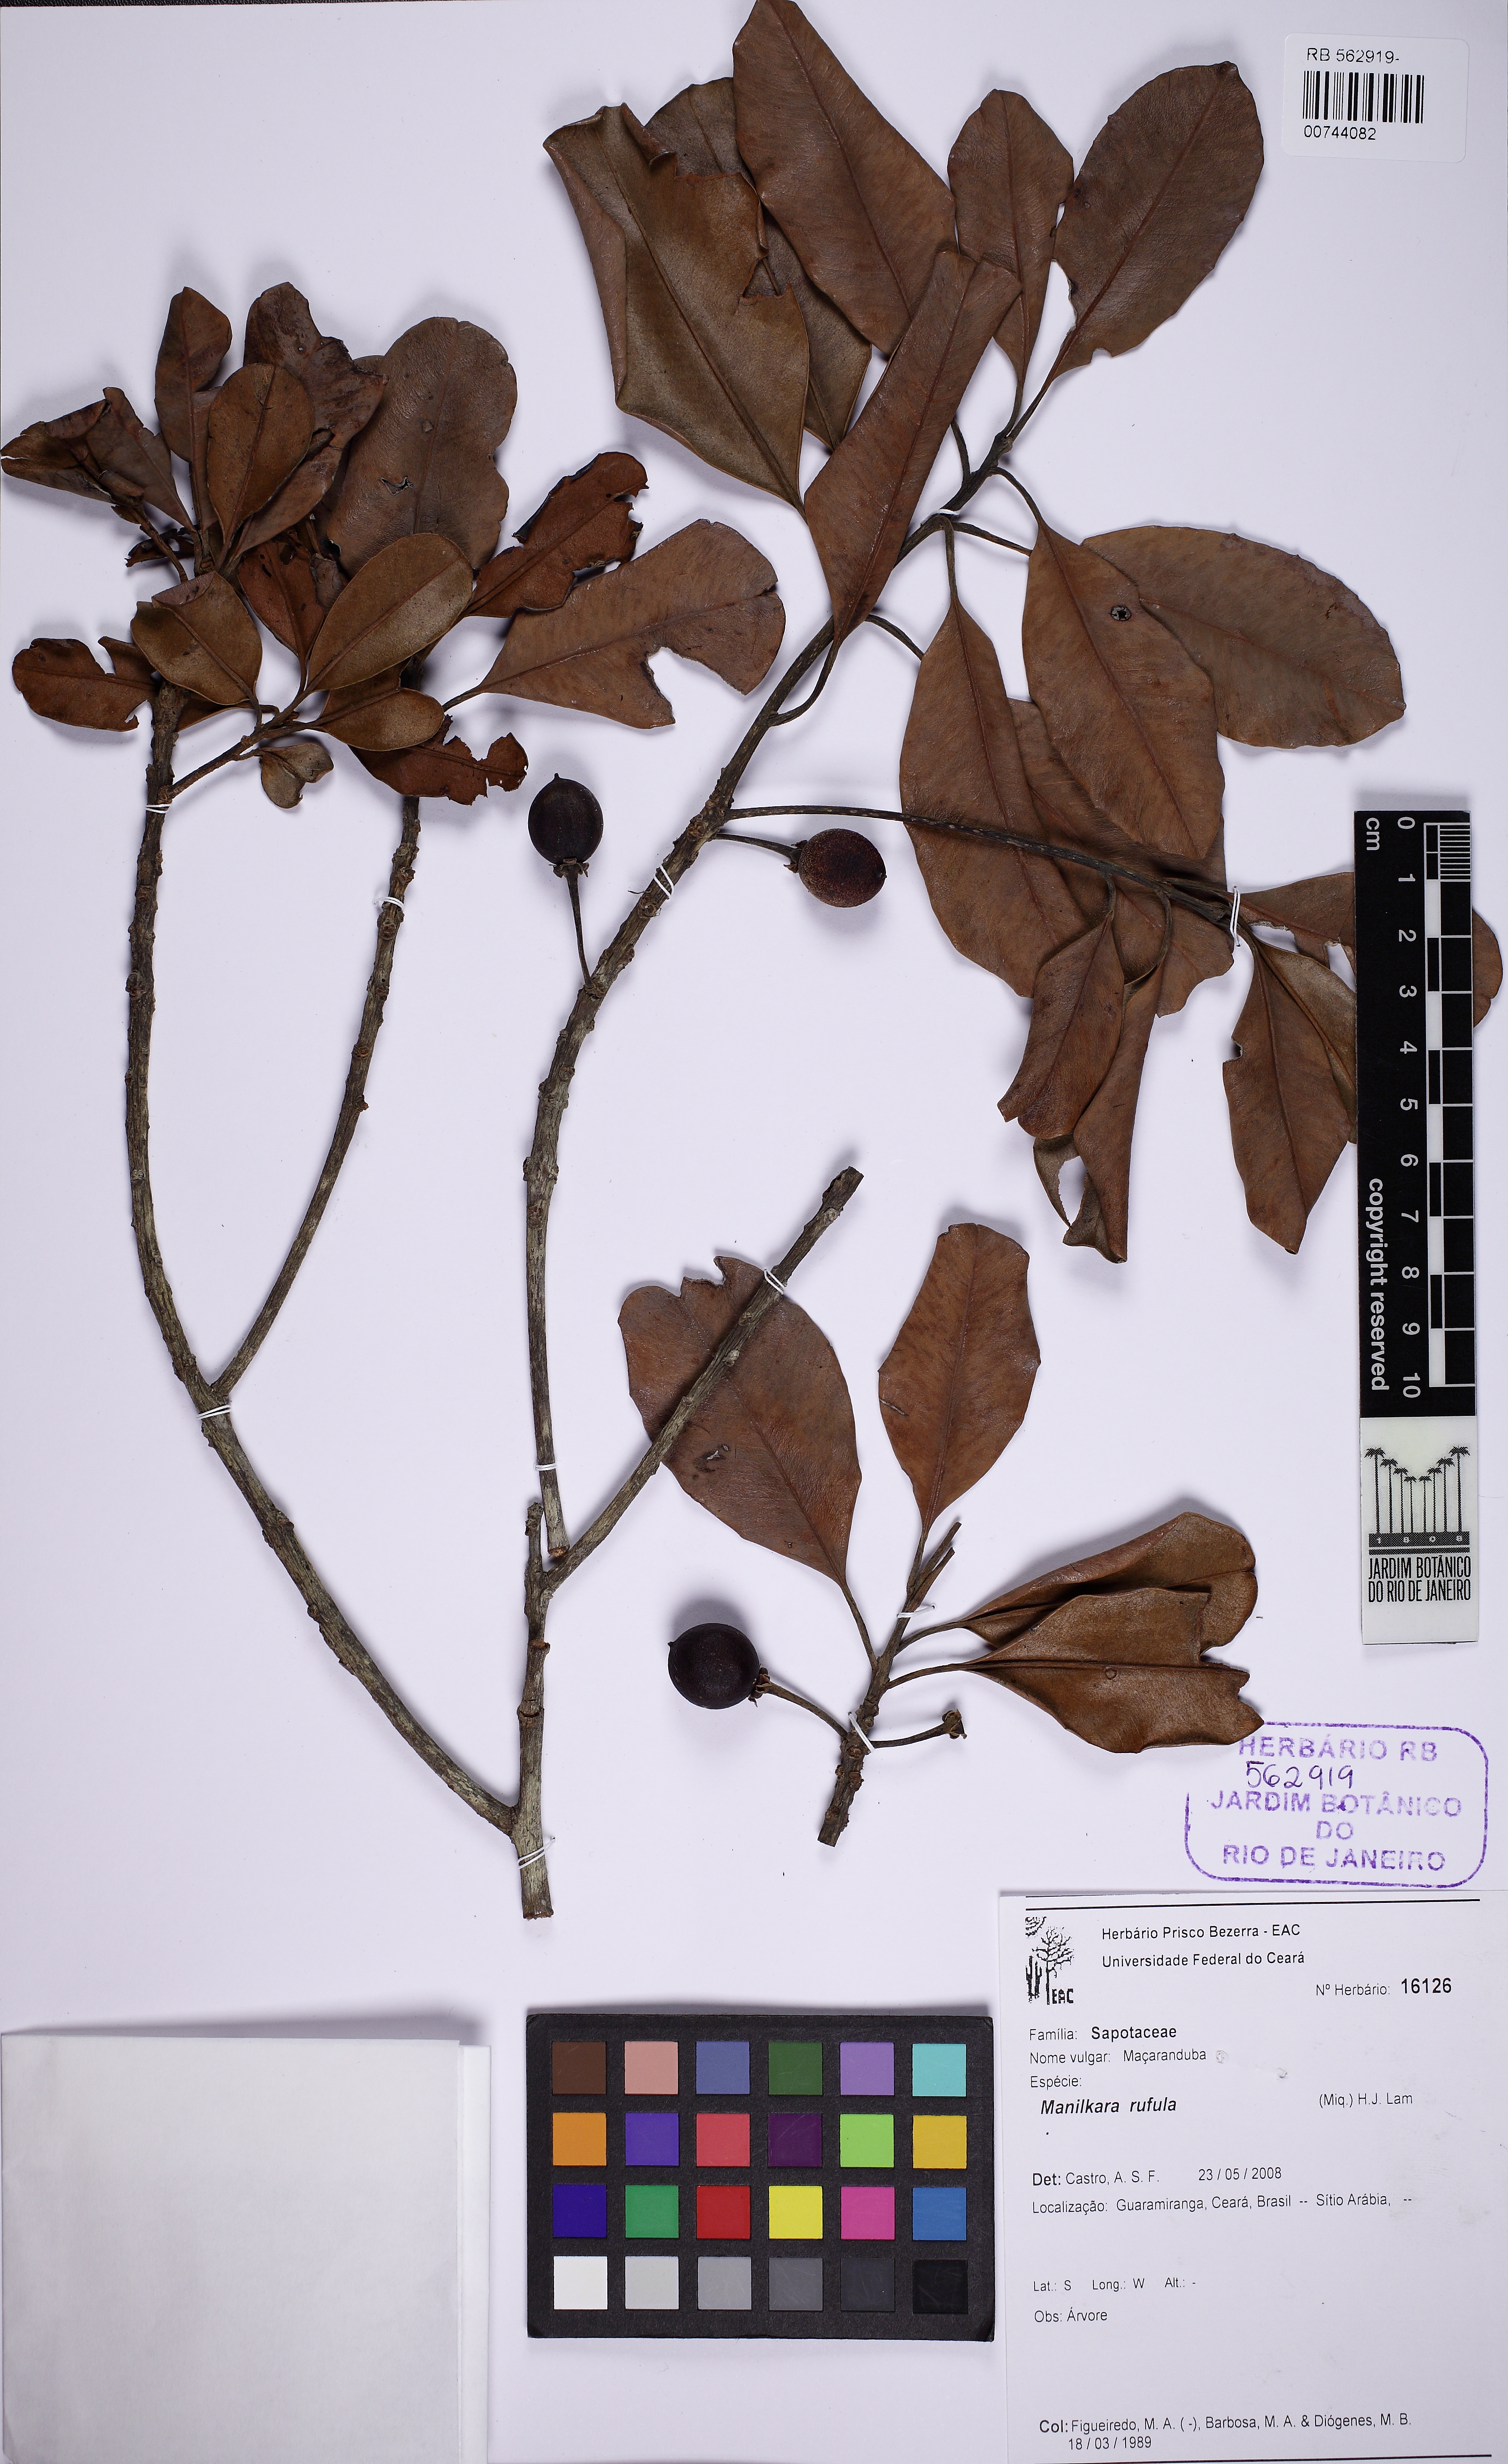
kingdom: Plantae
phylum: Tracheophyta
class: Magnoliopsida
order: Ericales
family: Sapotaceae
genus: Manilkara
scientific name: Manilkara rufula
